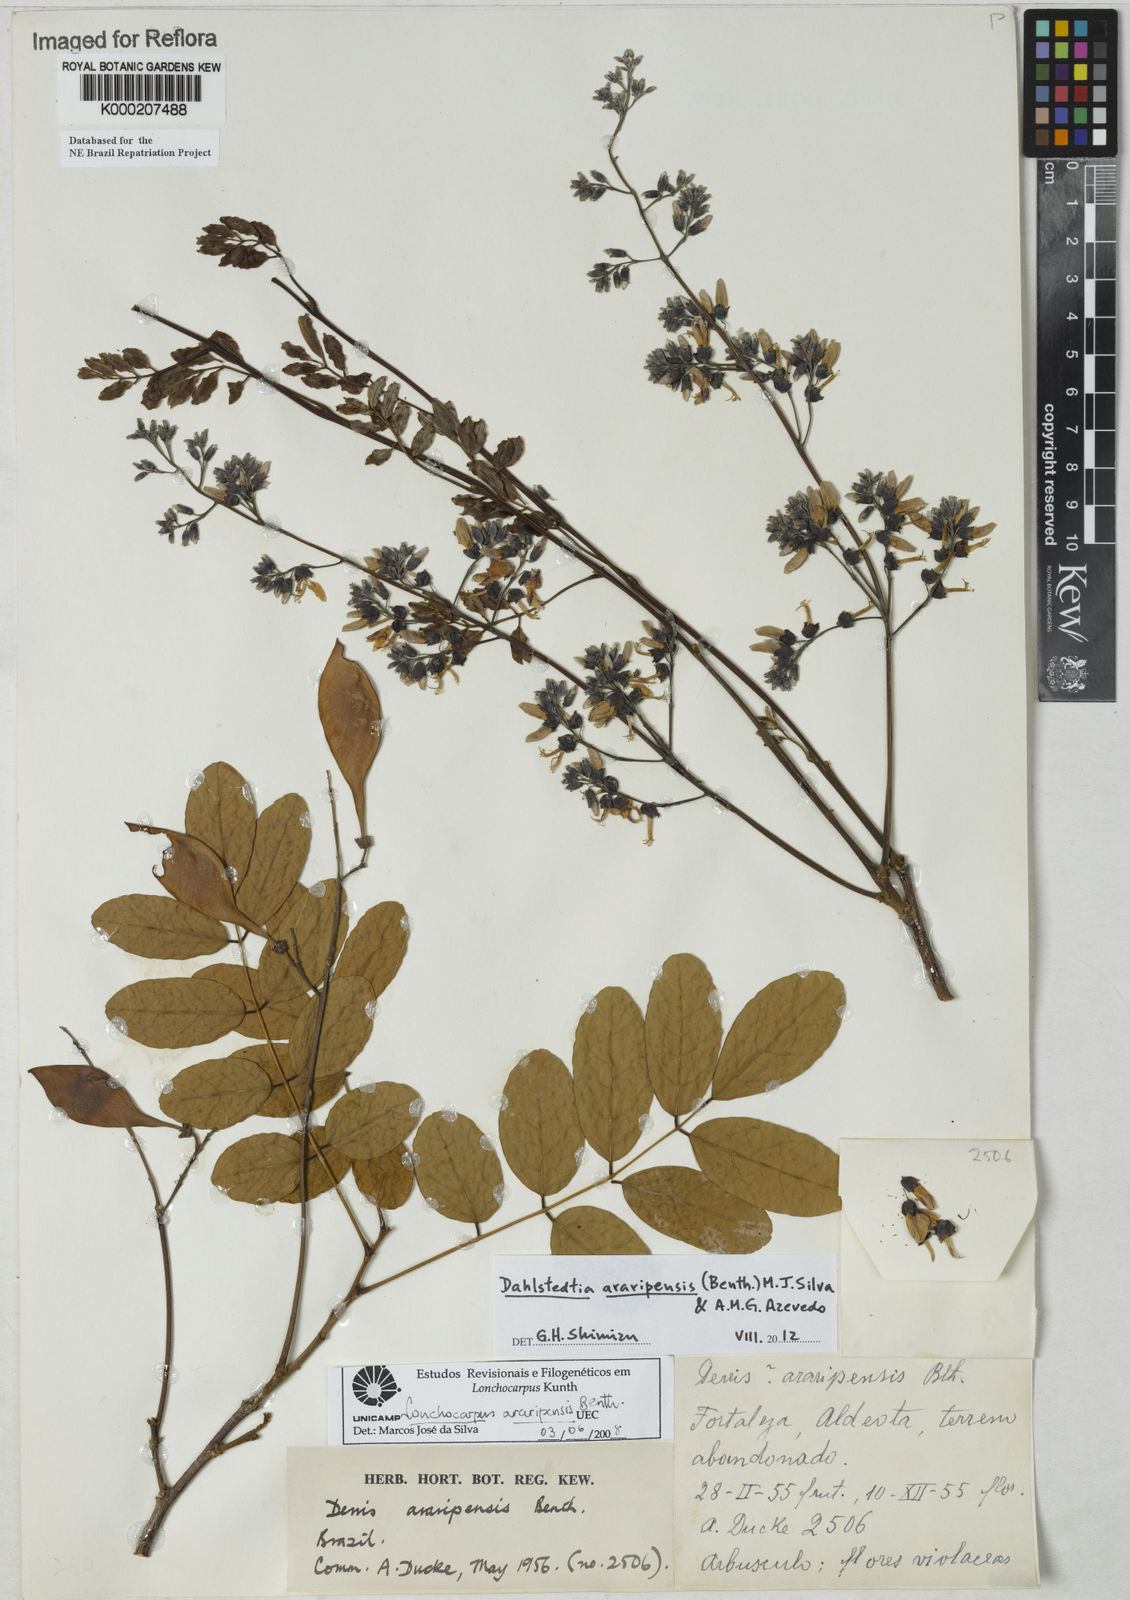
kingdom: Plantae
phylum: Tracheophyta
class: Magnoliopsida
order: Fabales
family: Fabaceae
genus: Dahlstedtia
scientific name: Dahlstedtia araripensis
